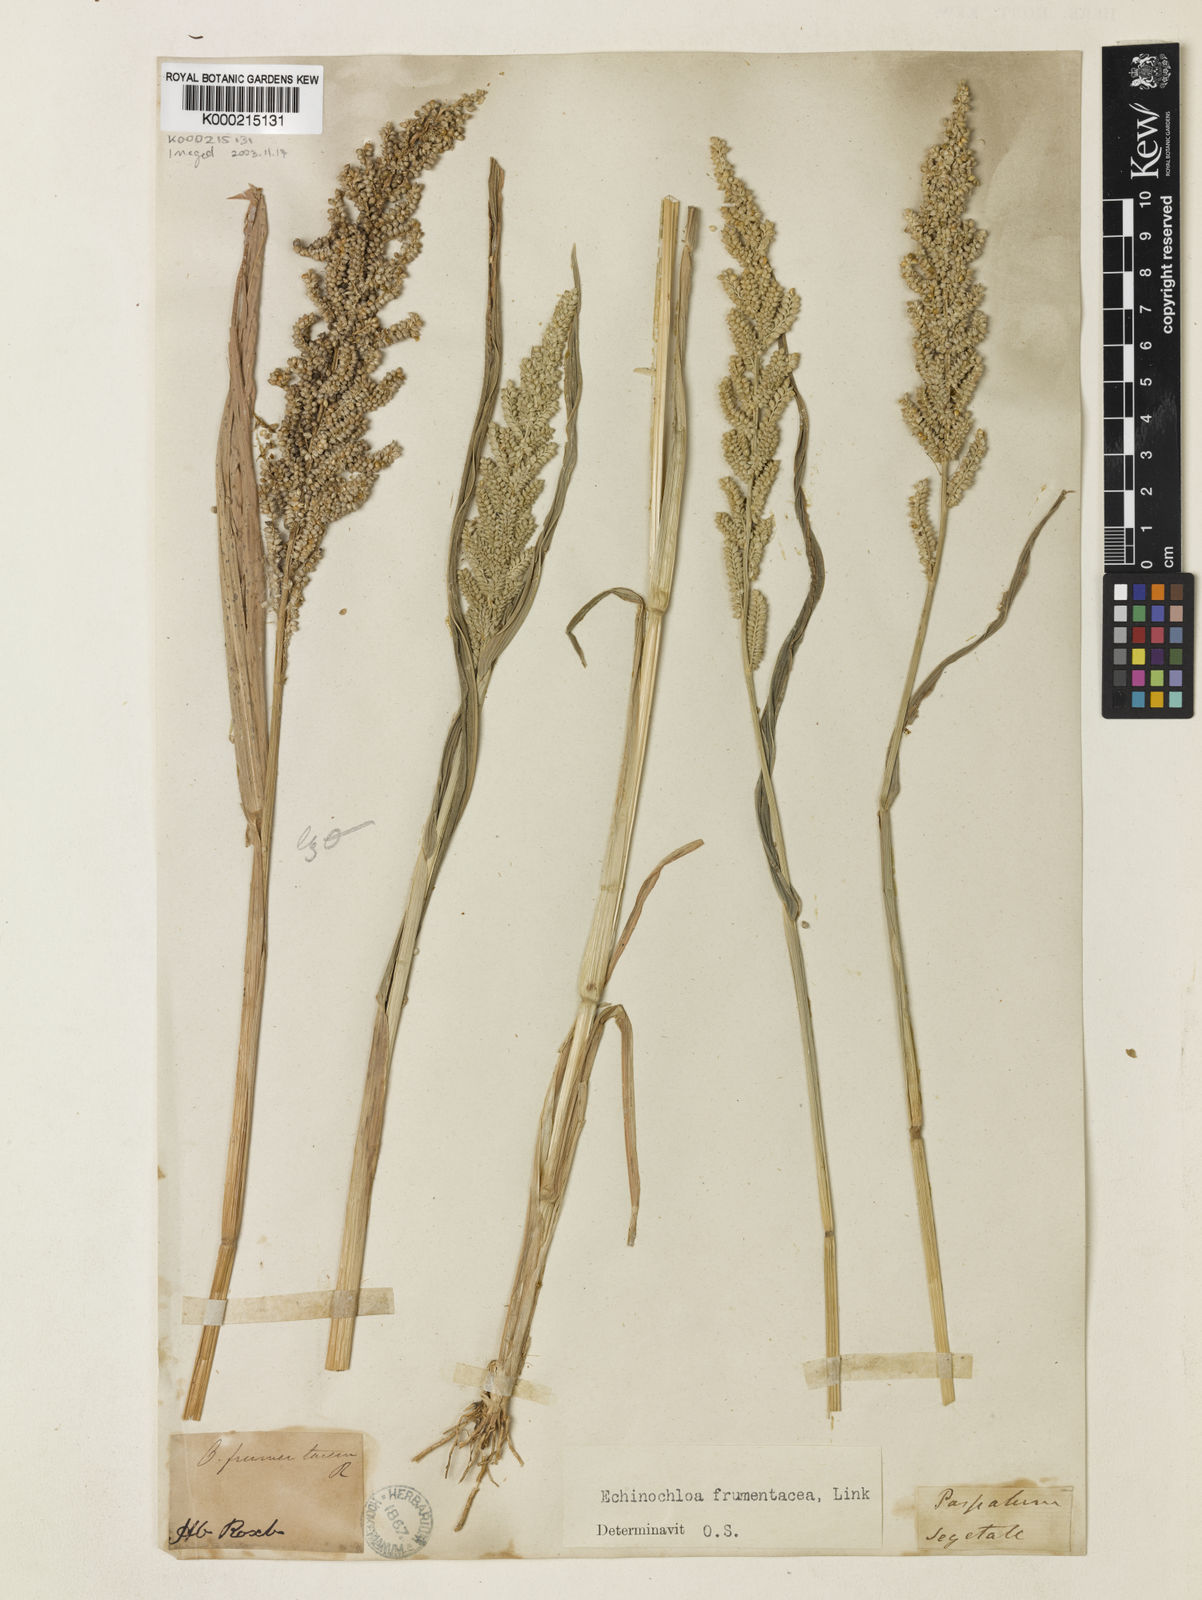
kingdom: Plantae
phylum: Tracheophyta
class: Liliopsida
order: Poales
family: Poaceae
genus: Echinochloa
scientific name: Echinochloa frumentacea
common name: Billion-dollar grass
